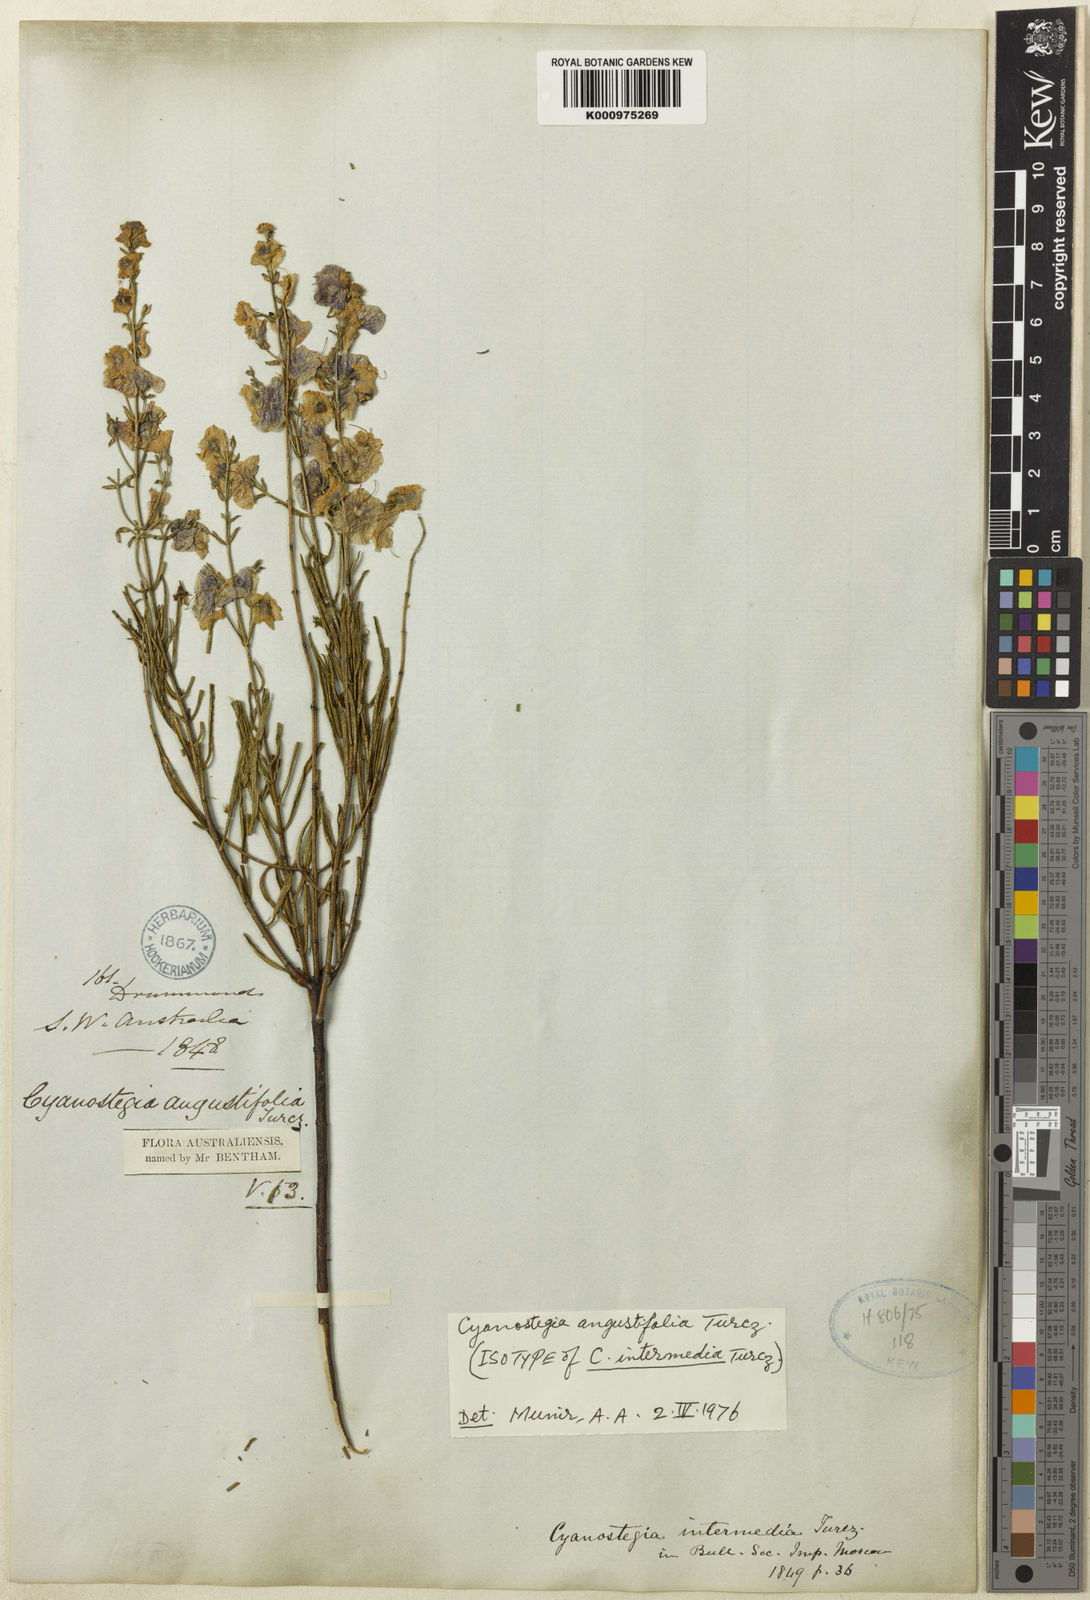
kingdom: Plantae
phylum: Tracheophyta
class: Magnoliopsida
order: Lamiales
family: Lamiaceae
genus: Cyanostegia
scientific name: Cyanostegia angustifolia
